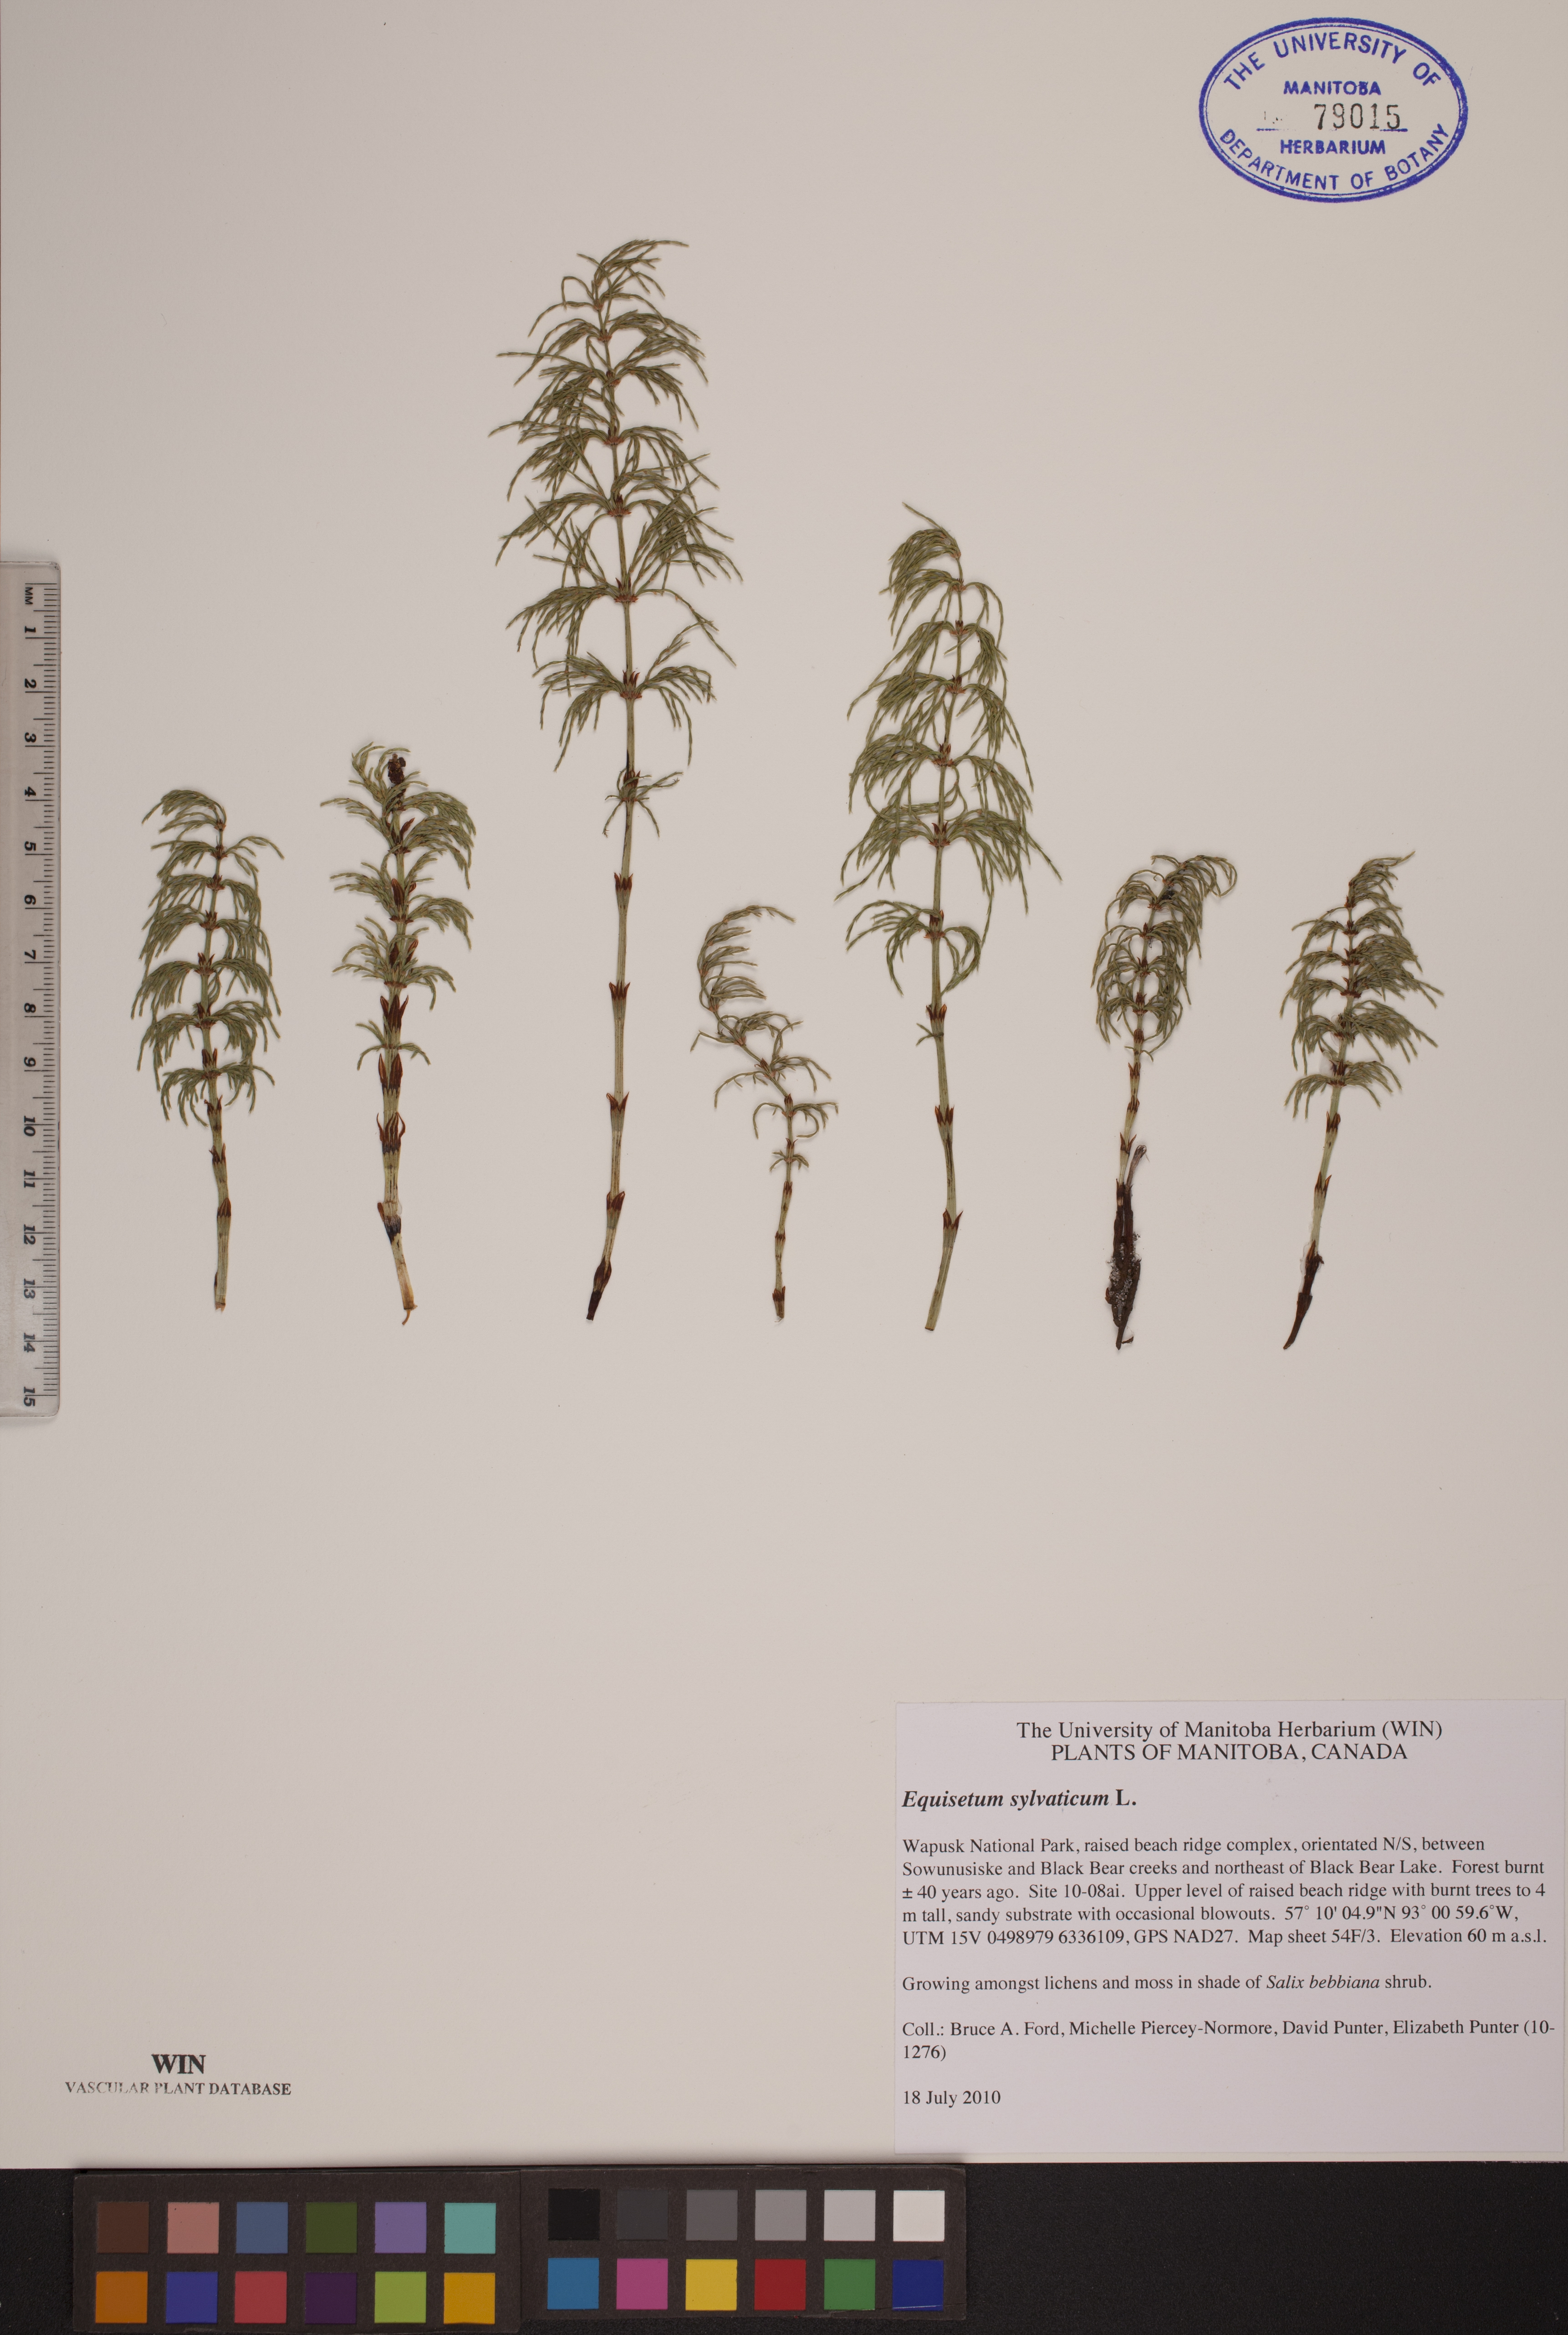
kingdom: Plantae
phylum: Tracheophyta
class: Polypodiopsida
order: Equisetales
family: Equisetaceae
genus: Equisetum
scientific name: Equisetum sylvaticum
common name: Wood horsetail
